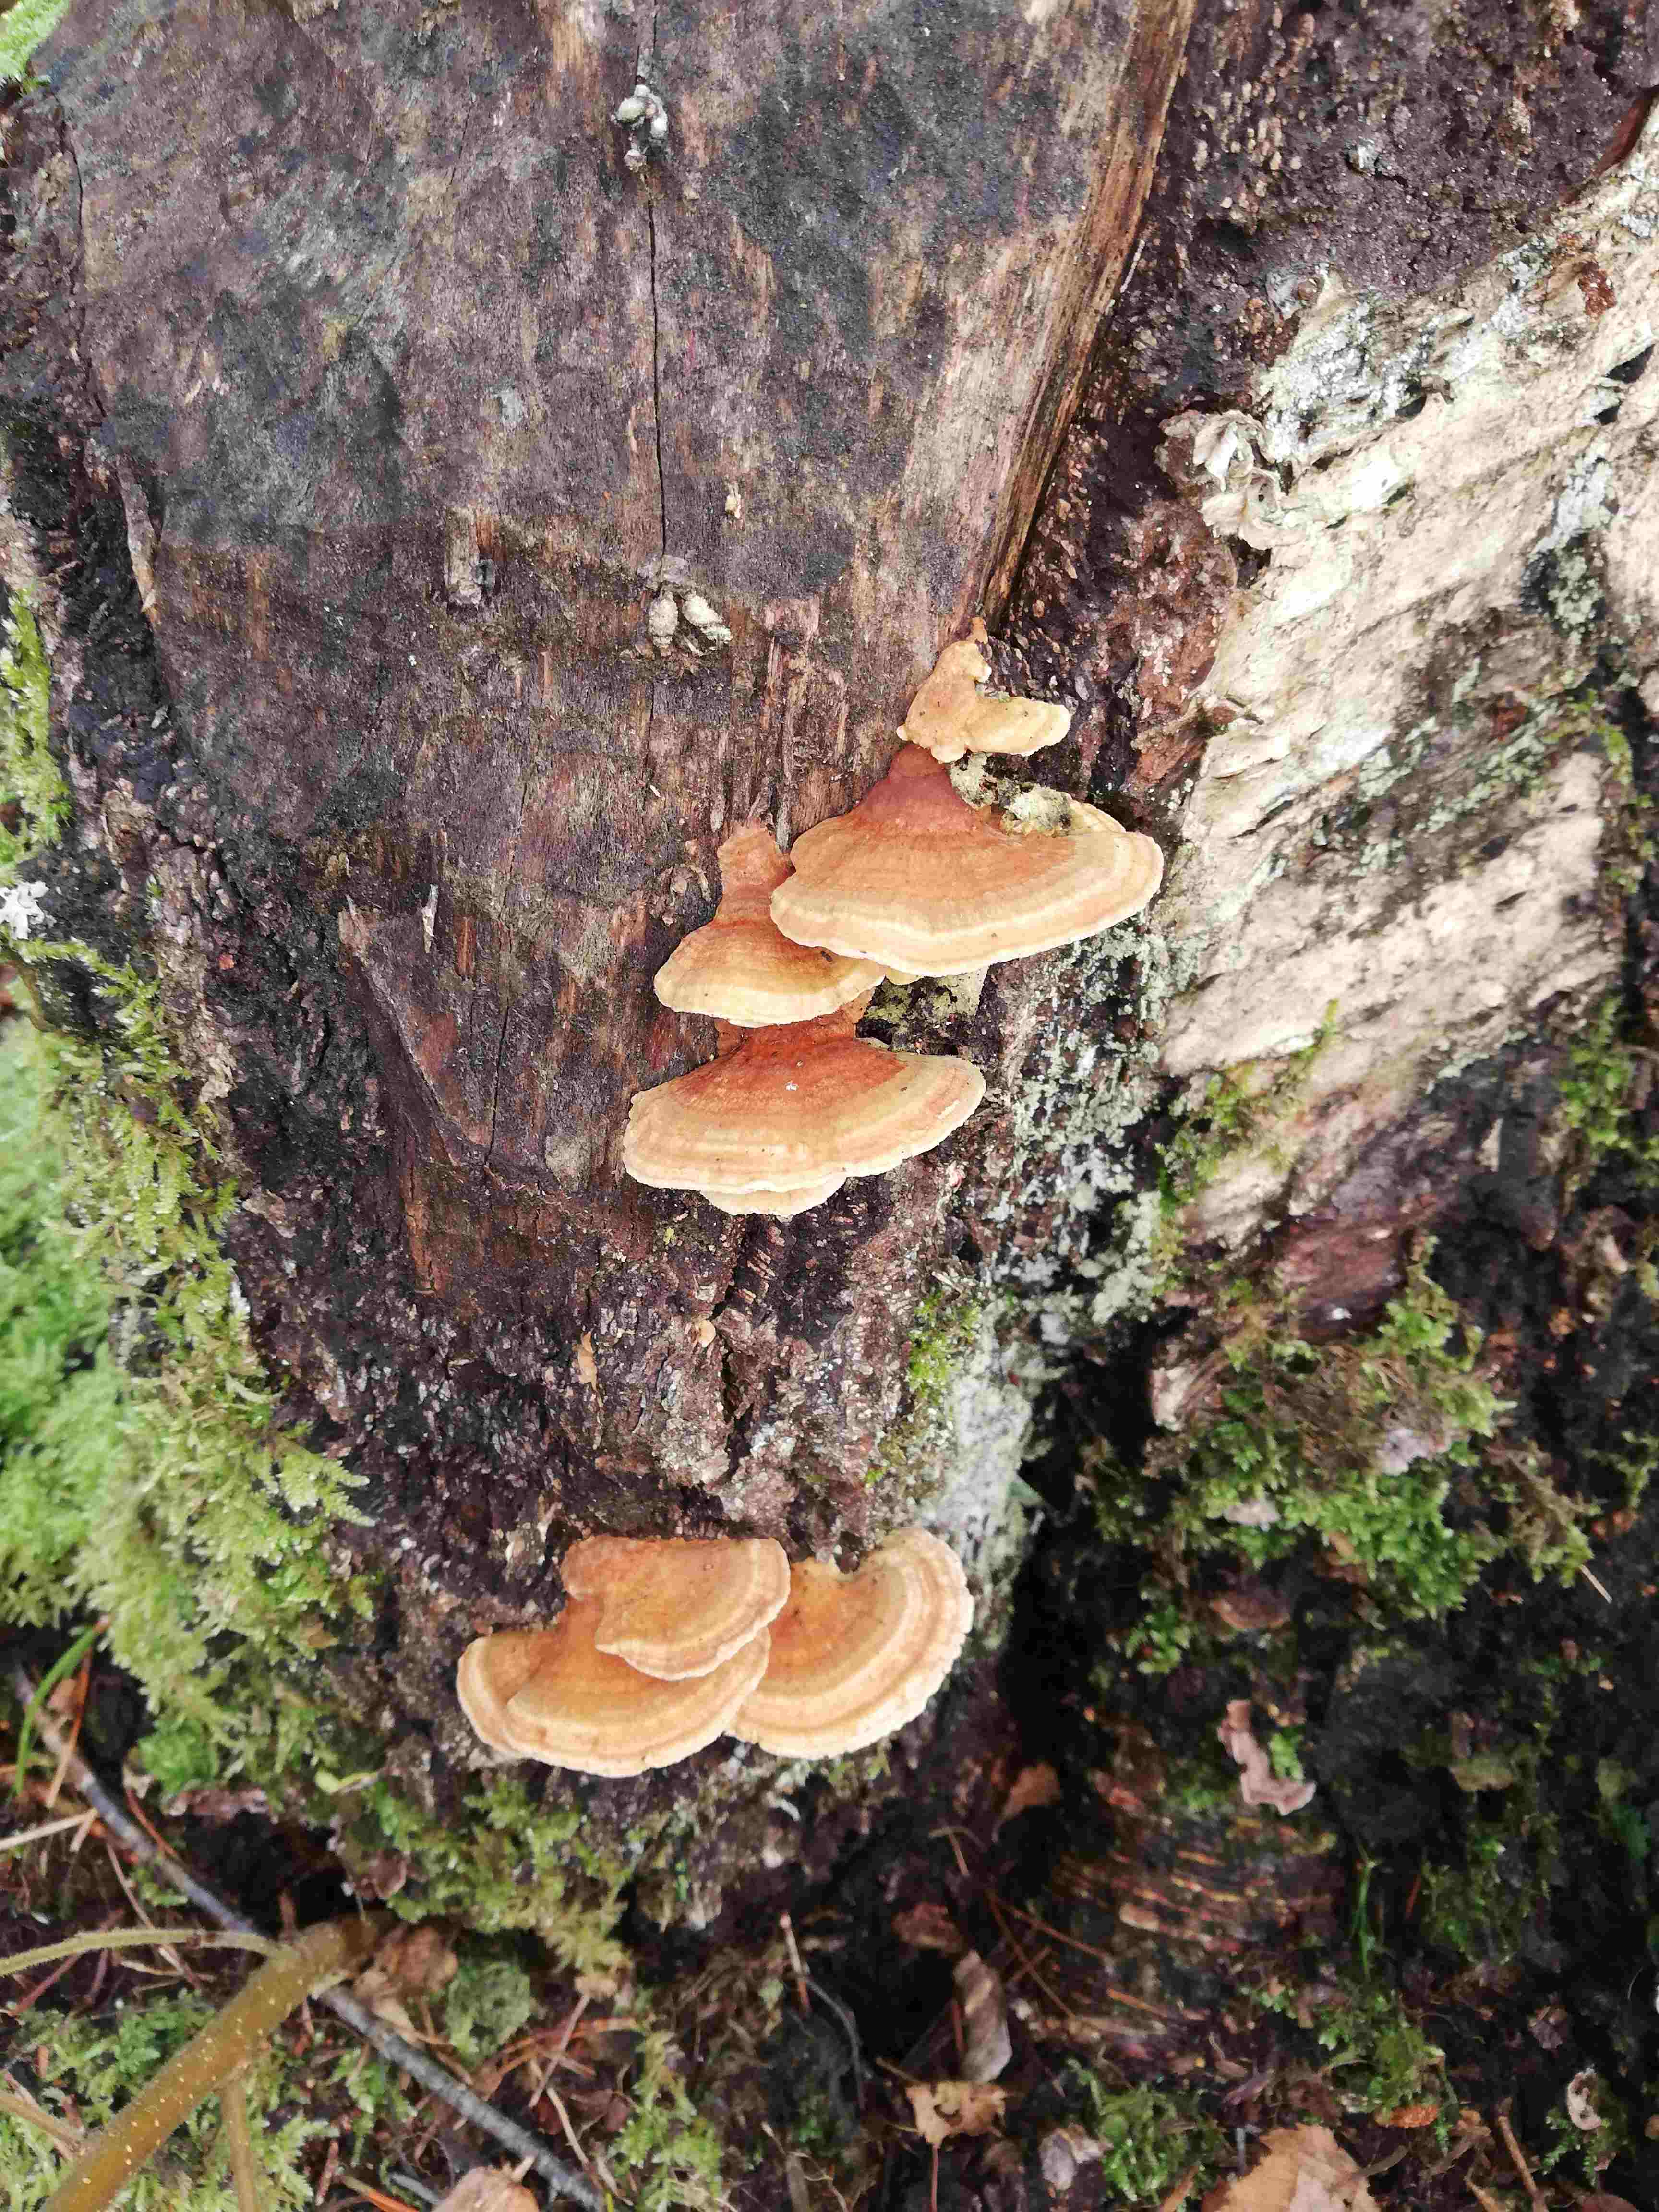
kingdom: Fungi
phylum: Basidiomycota
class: Agaricomycetes
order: Polyporales
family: Polyporaceae
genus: Trametes
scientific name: Trametes ochracea
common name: bæltet læderporesvamp
